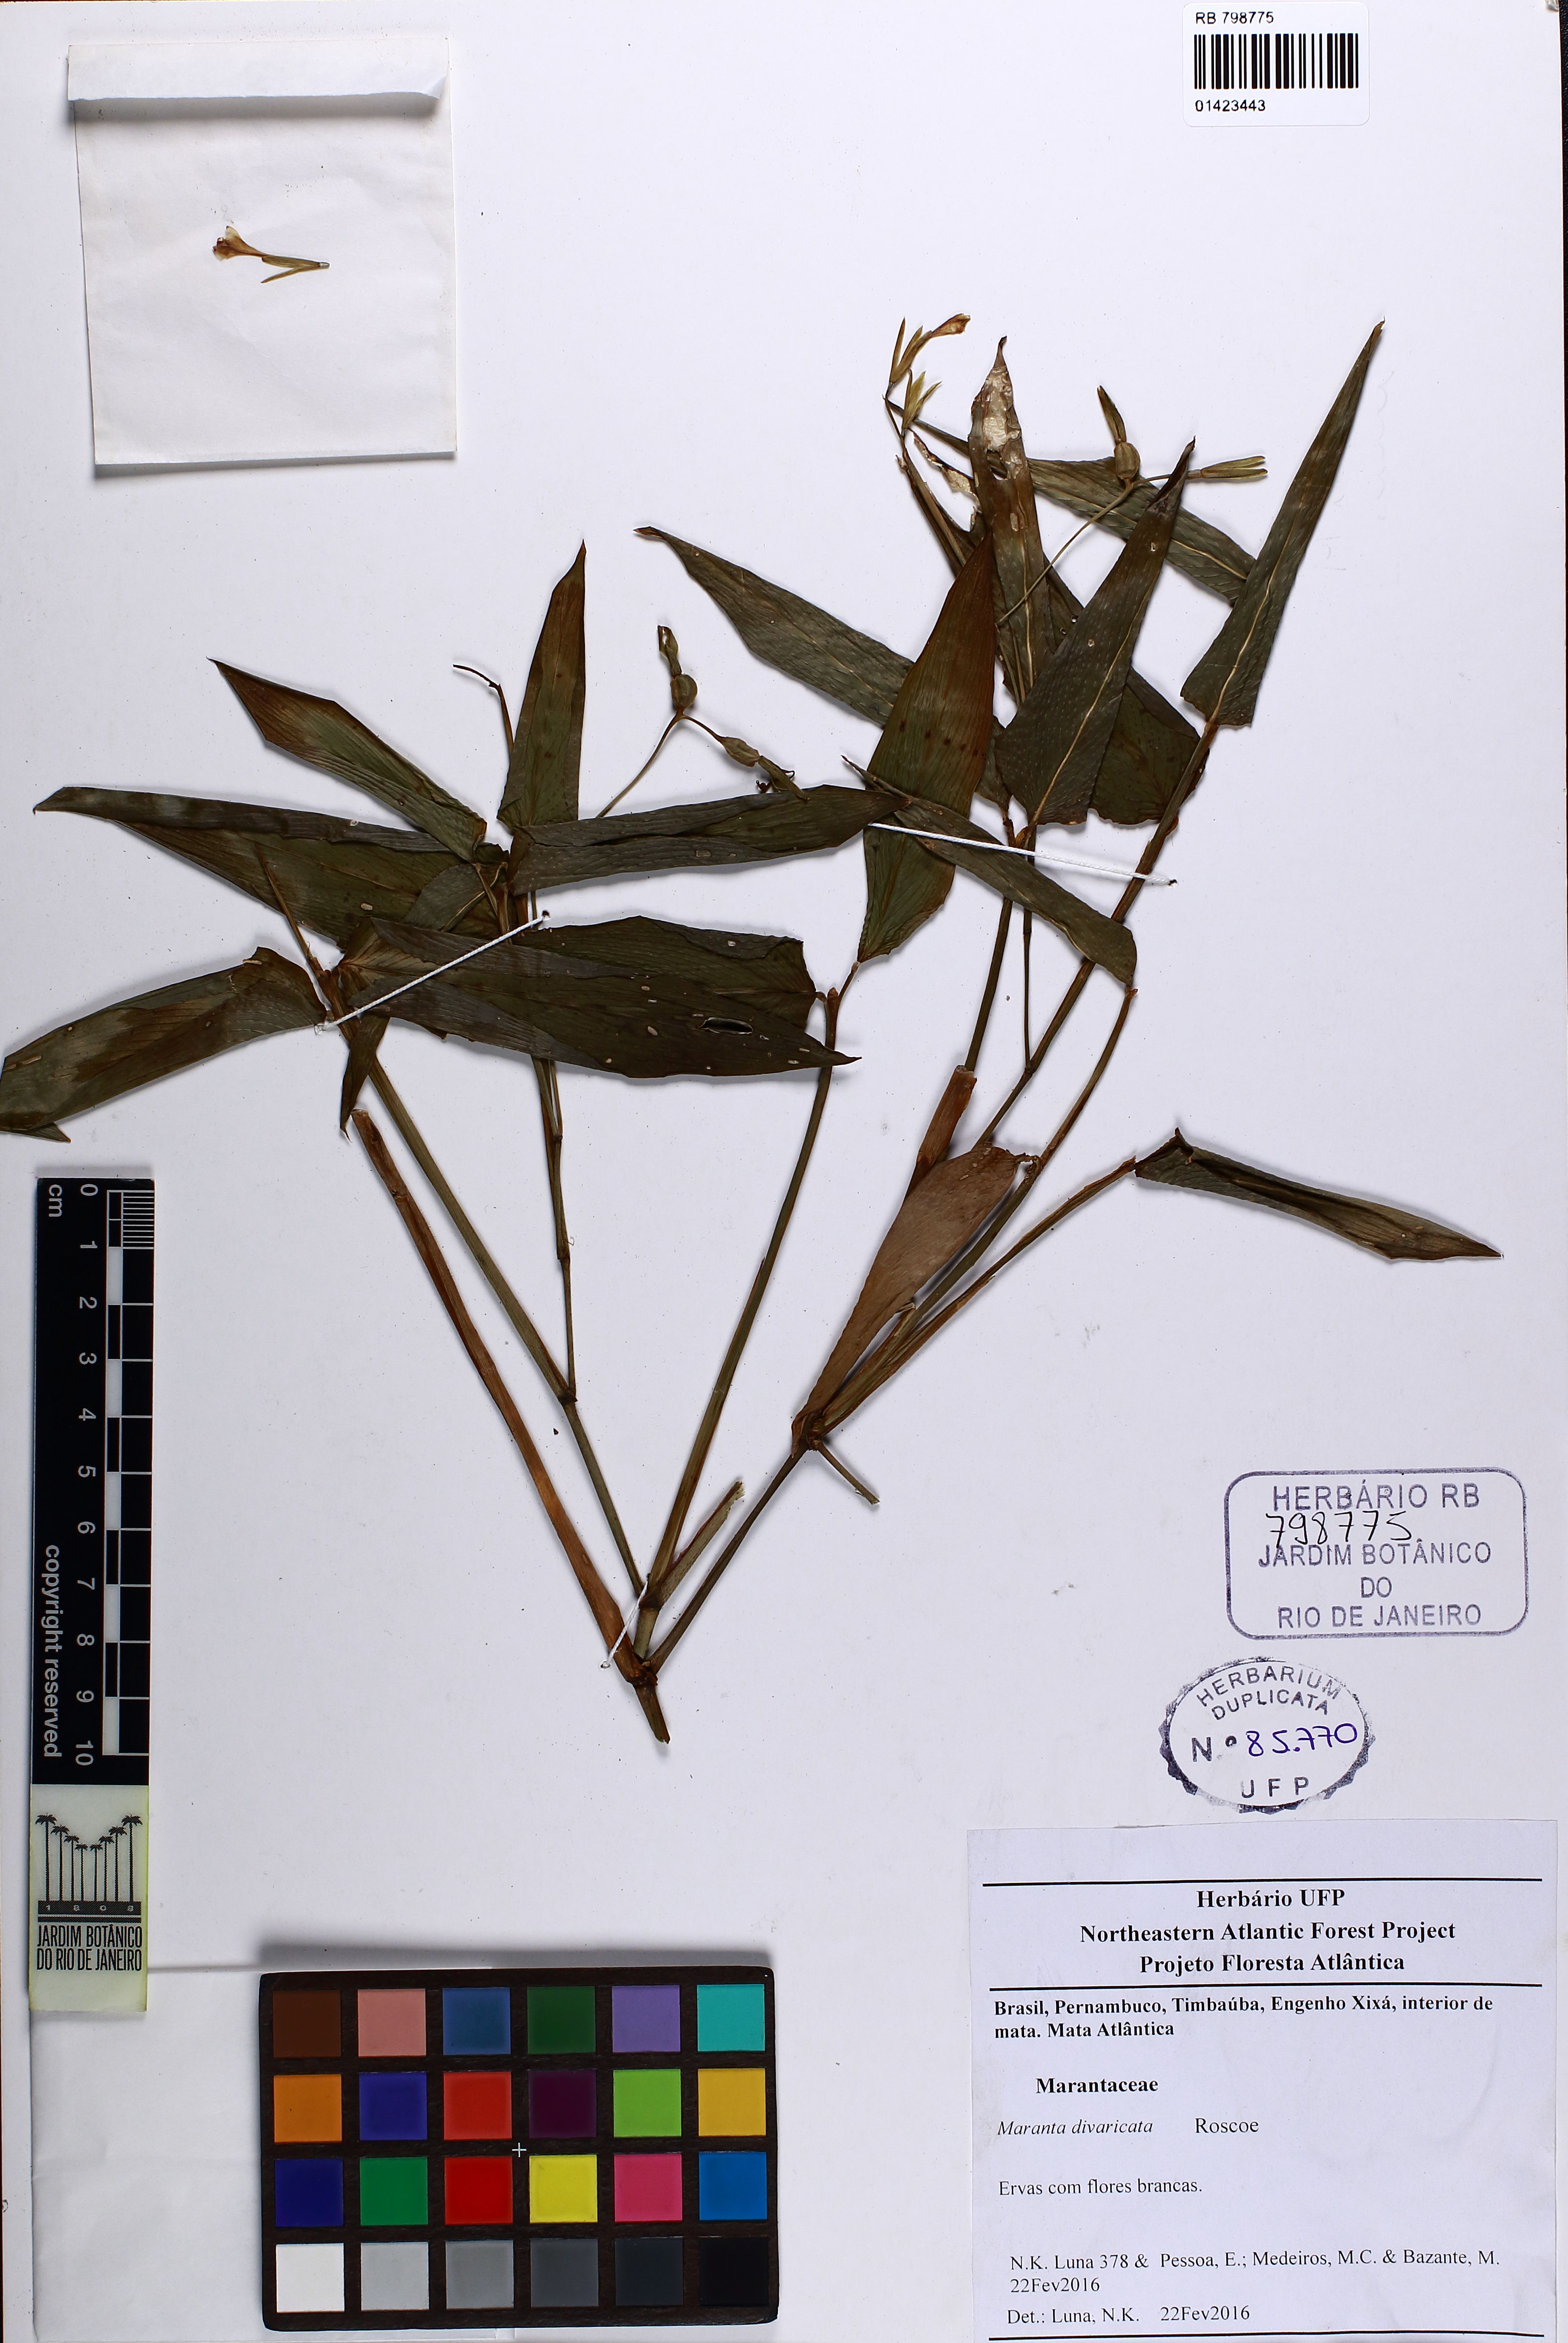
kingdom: Plantae
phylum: Tracheophyta
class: Liliopsida
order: Zingiberales
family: Marantaceae
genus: Maranta
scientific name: Maranta divaricata
